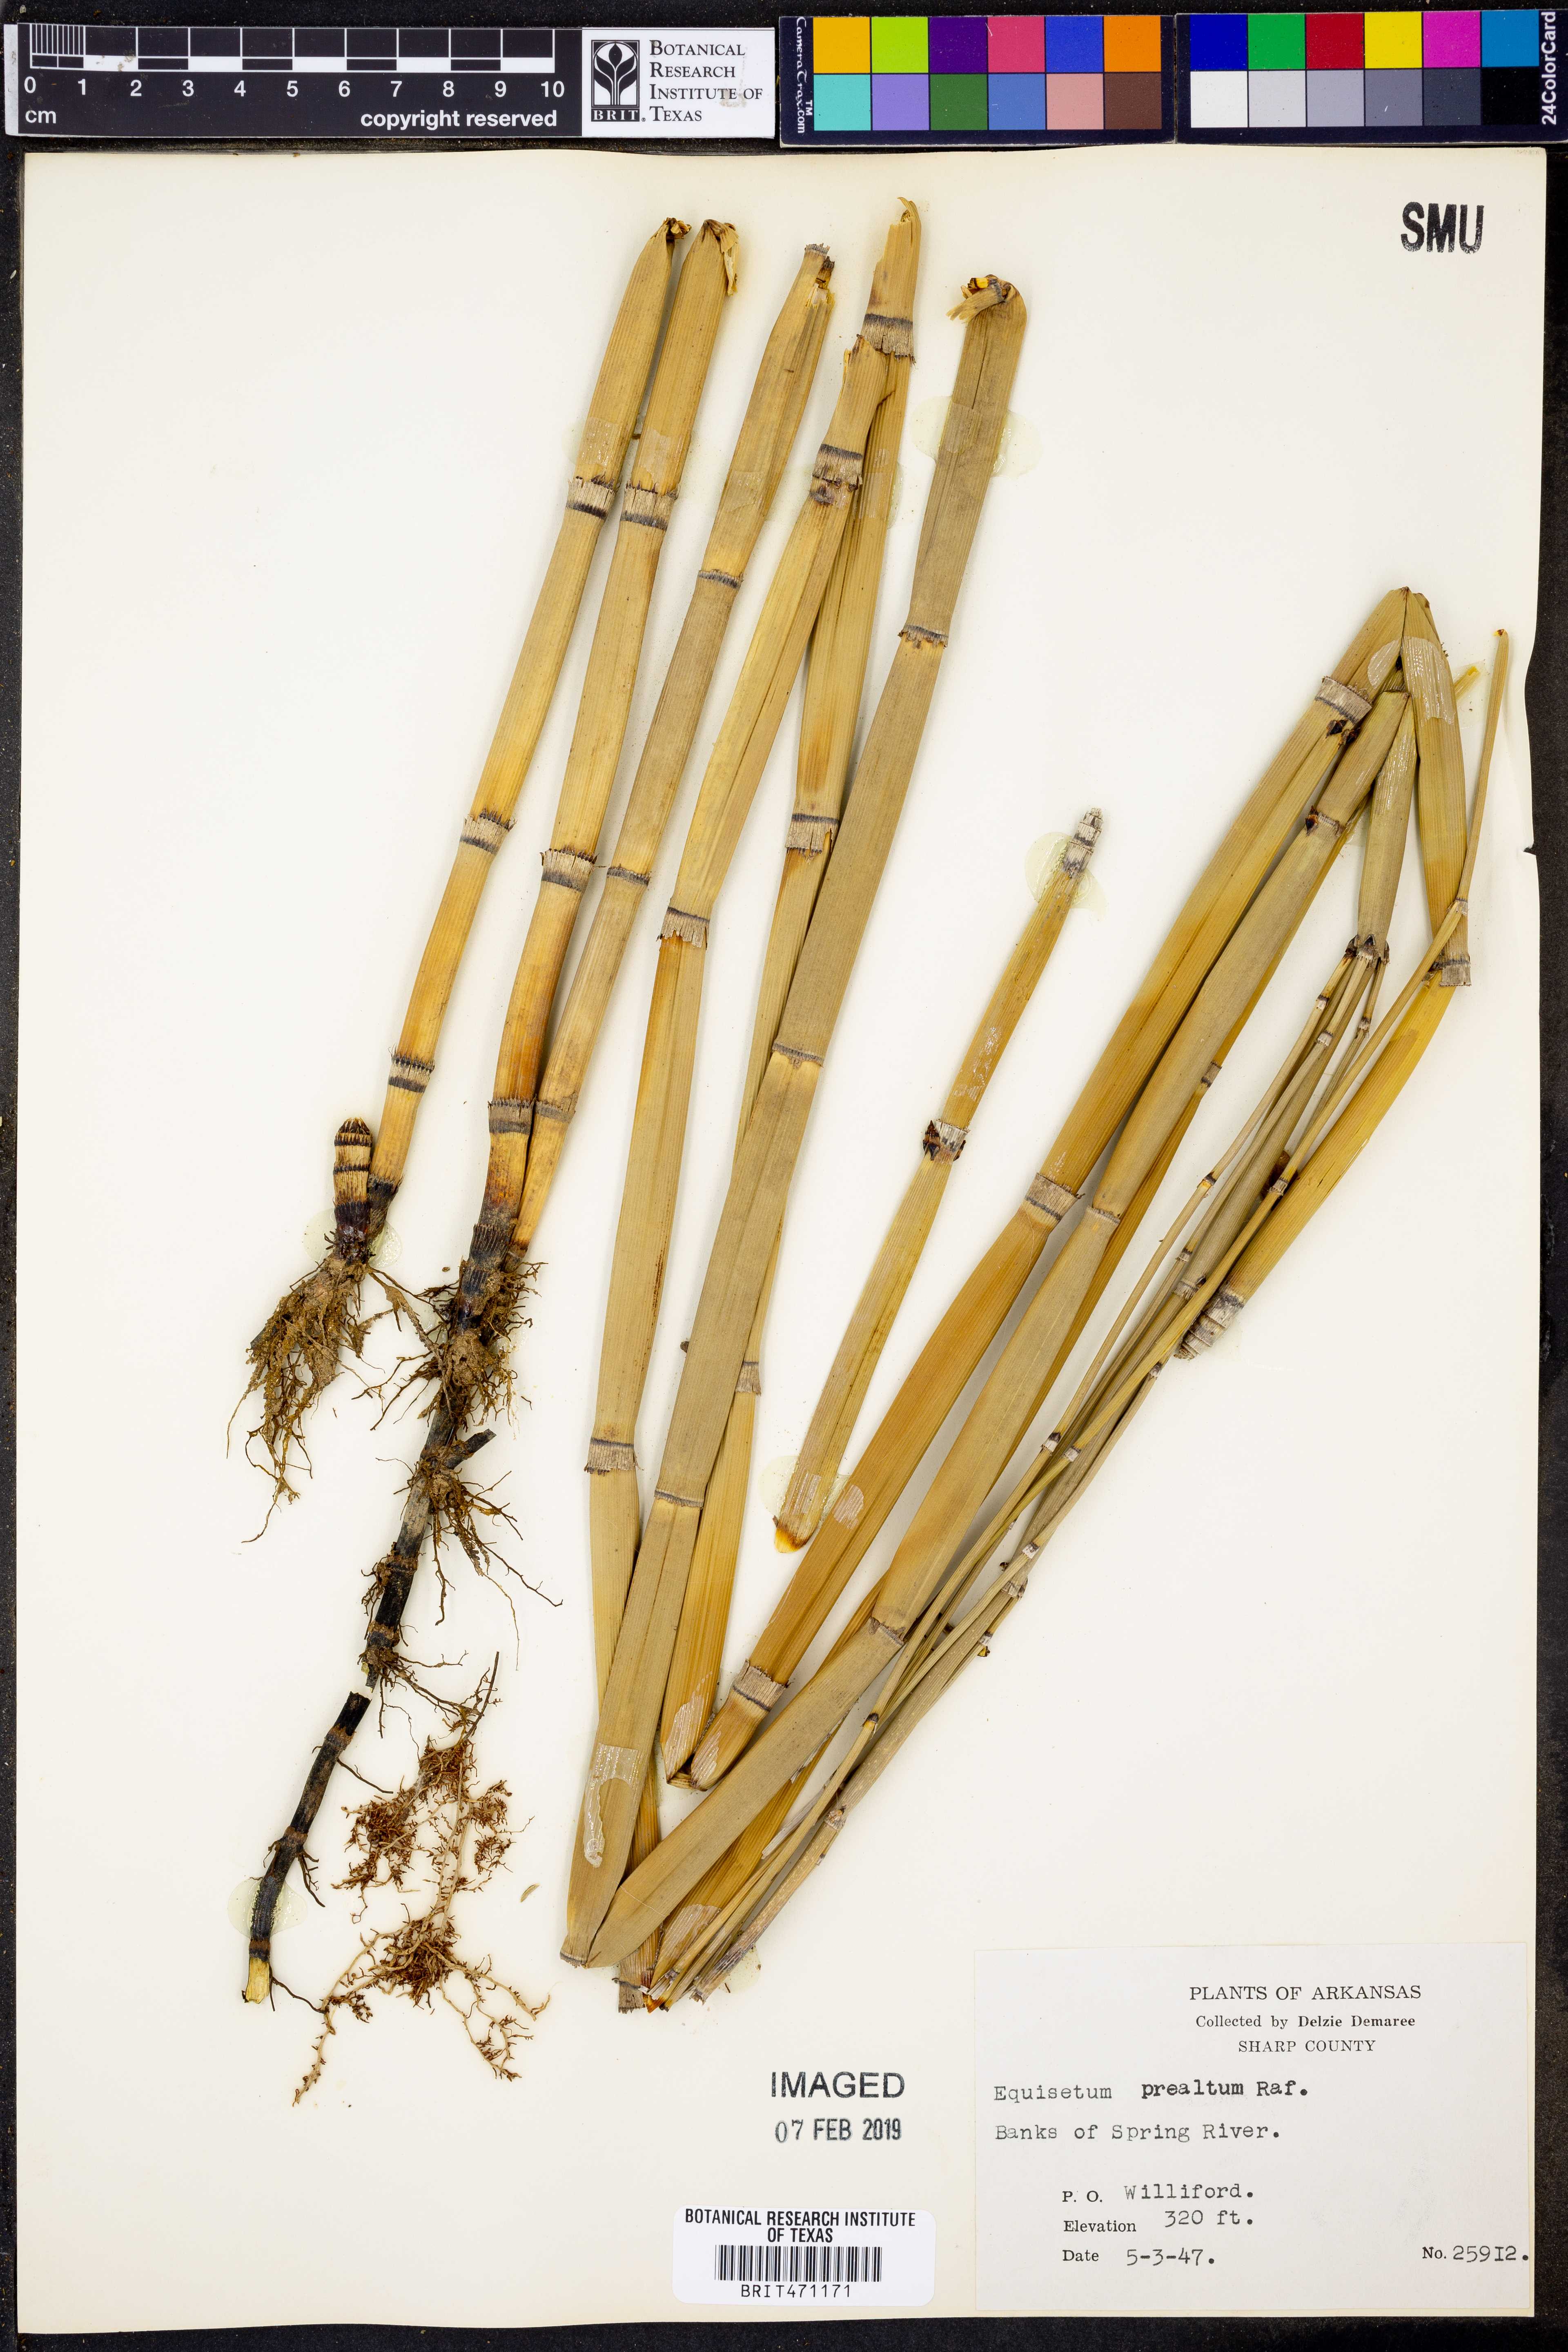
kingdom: Plantae
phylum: Tracheophyta
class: Polypodiopsida
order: Equisetales
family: Equisetaceae
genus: Equisetum
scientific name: Equisetum praealtum
